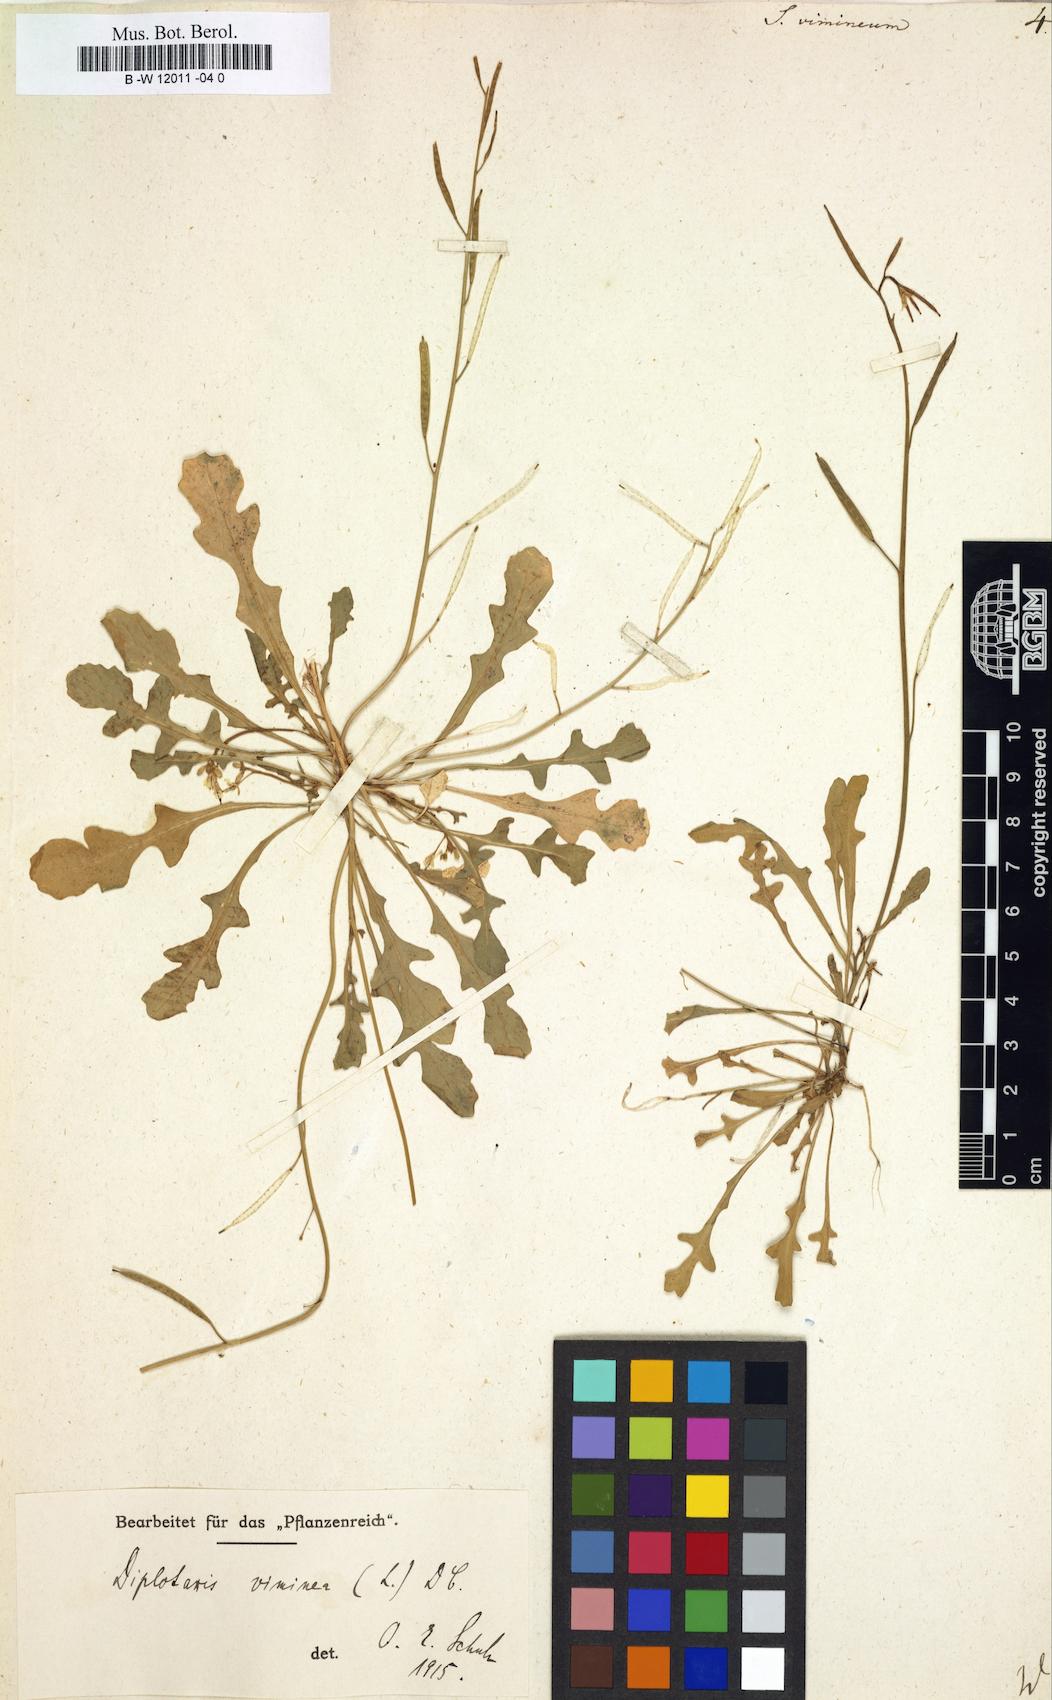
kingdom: Plantae
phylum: Tracheophyta
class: Magnoliopsida
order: Brassicales
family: Brassicaceae
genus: Sisymbrium
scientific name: Sisymbrium vimineum
